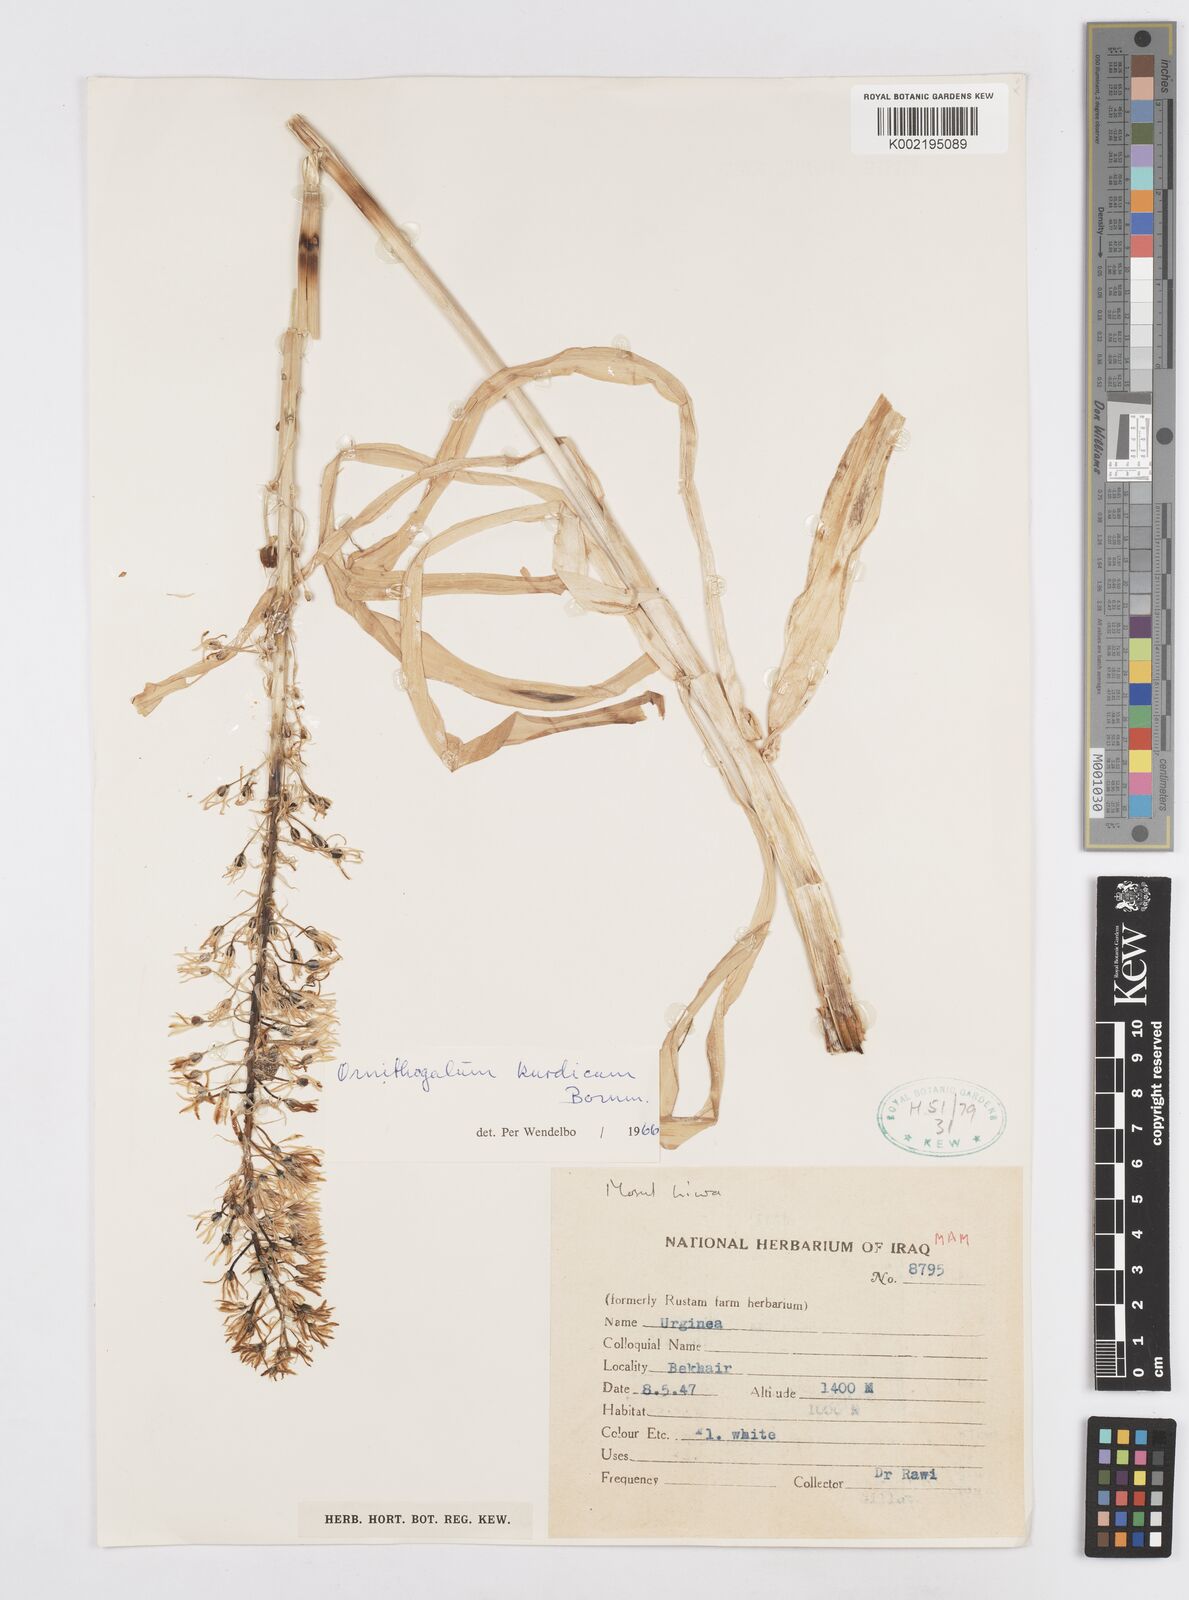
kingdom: Plantae
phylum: Tracheophyta
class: Liliopsida
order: Asparagales
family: Asparagaceae
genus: Ornithogalum
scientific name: Ornithogalum kurdicum
